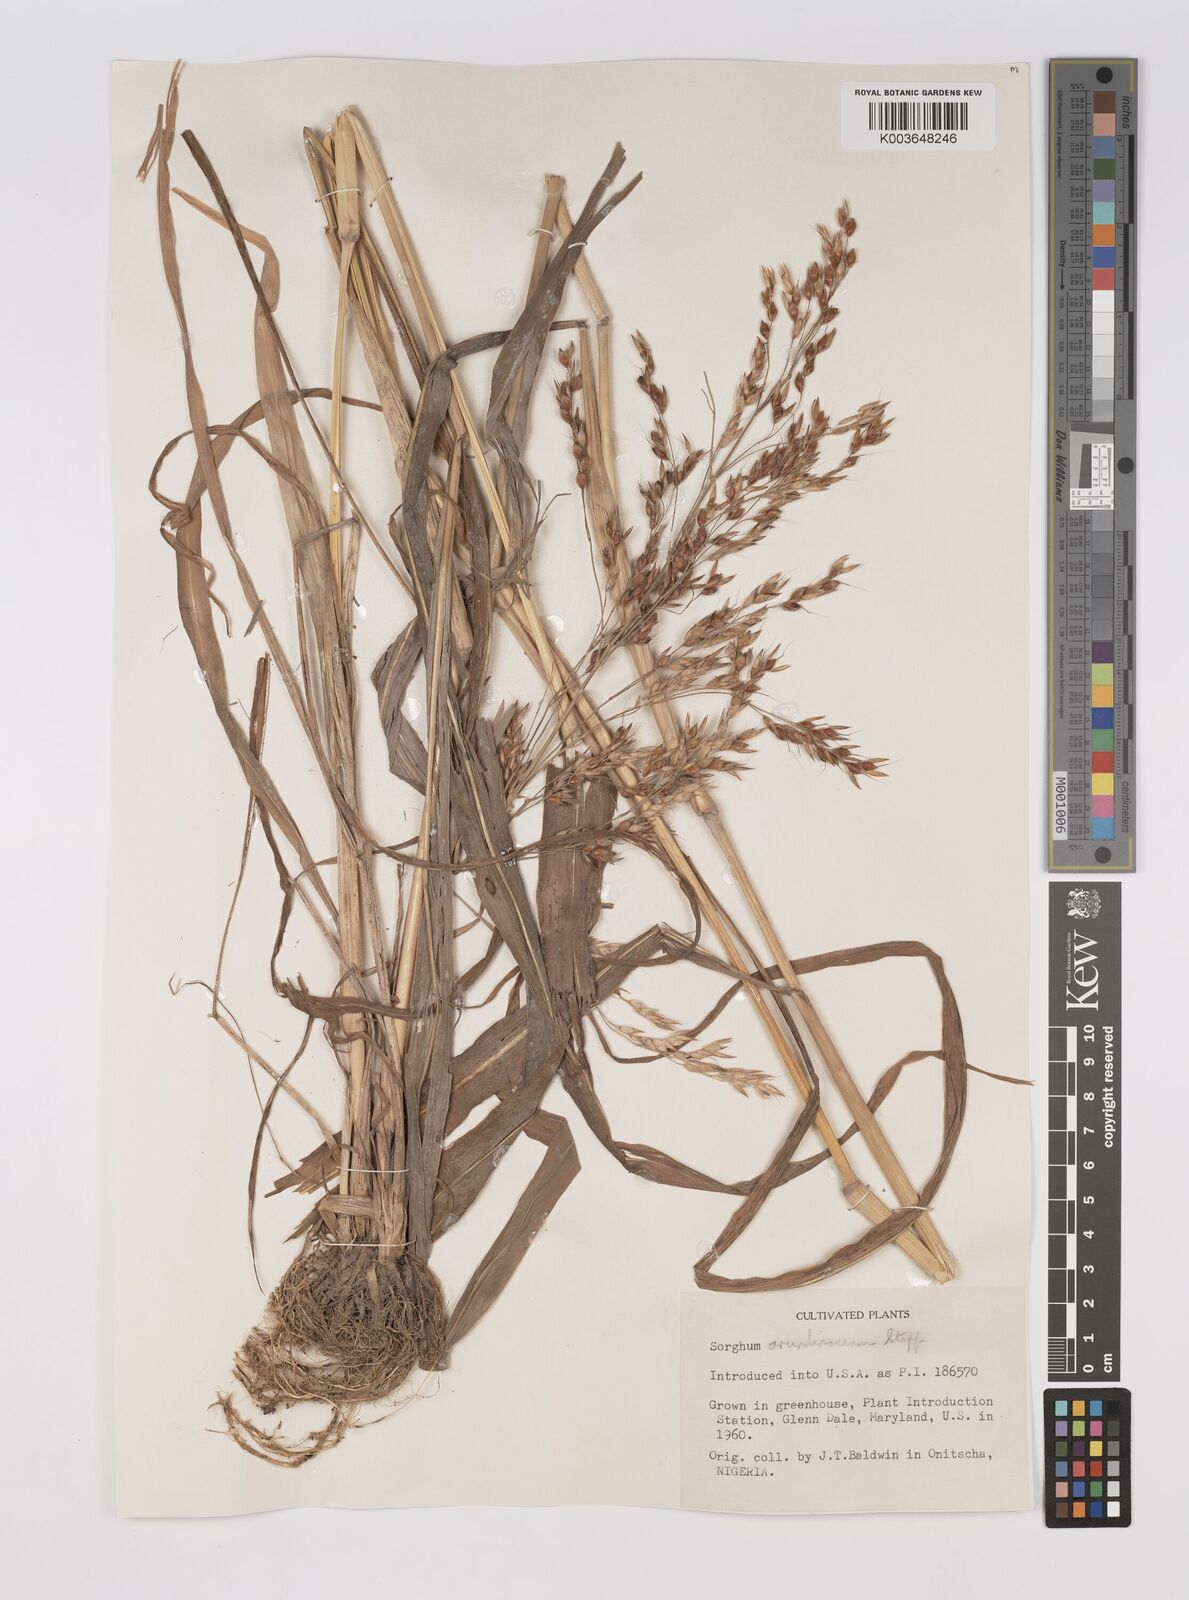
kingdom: Plantae
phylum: Tracheophyta
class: Liliopsida
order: Poales
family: Poaceae
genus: Sorghum
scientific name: Sorghum arundinaceum
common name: Sorghum
